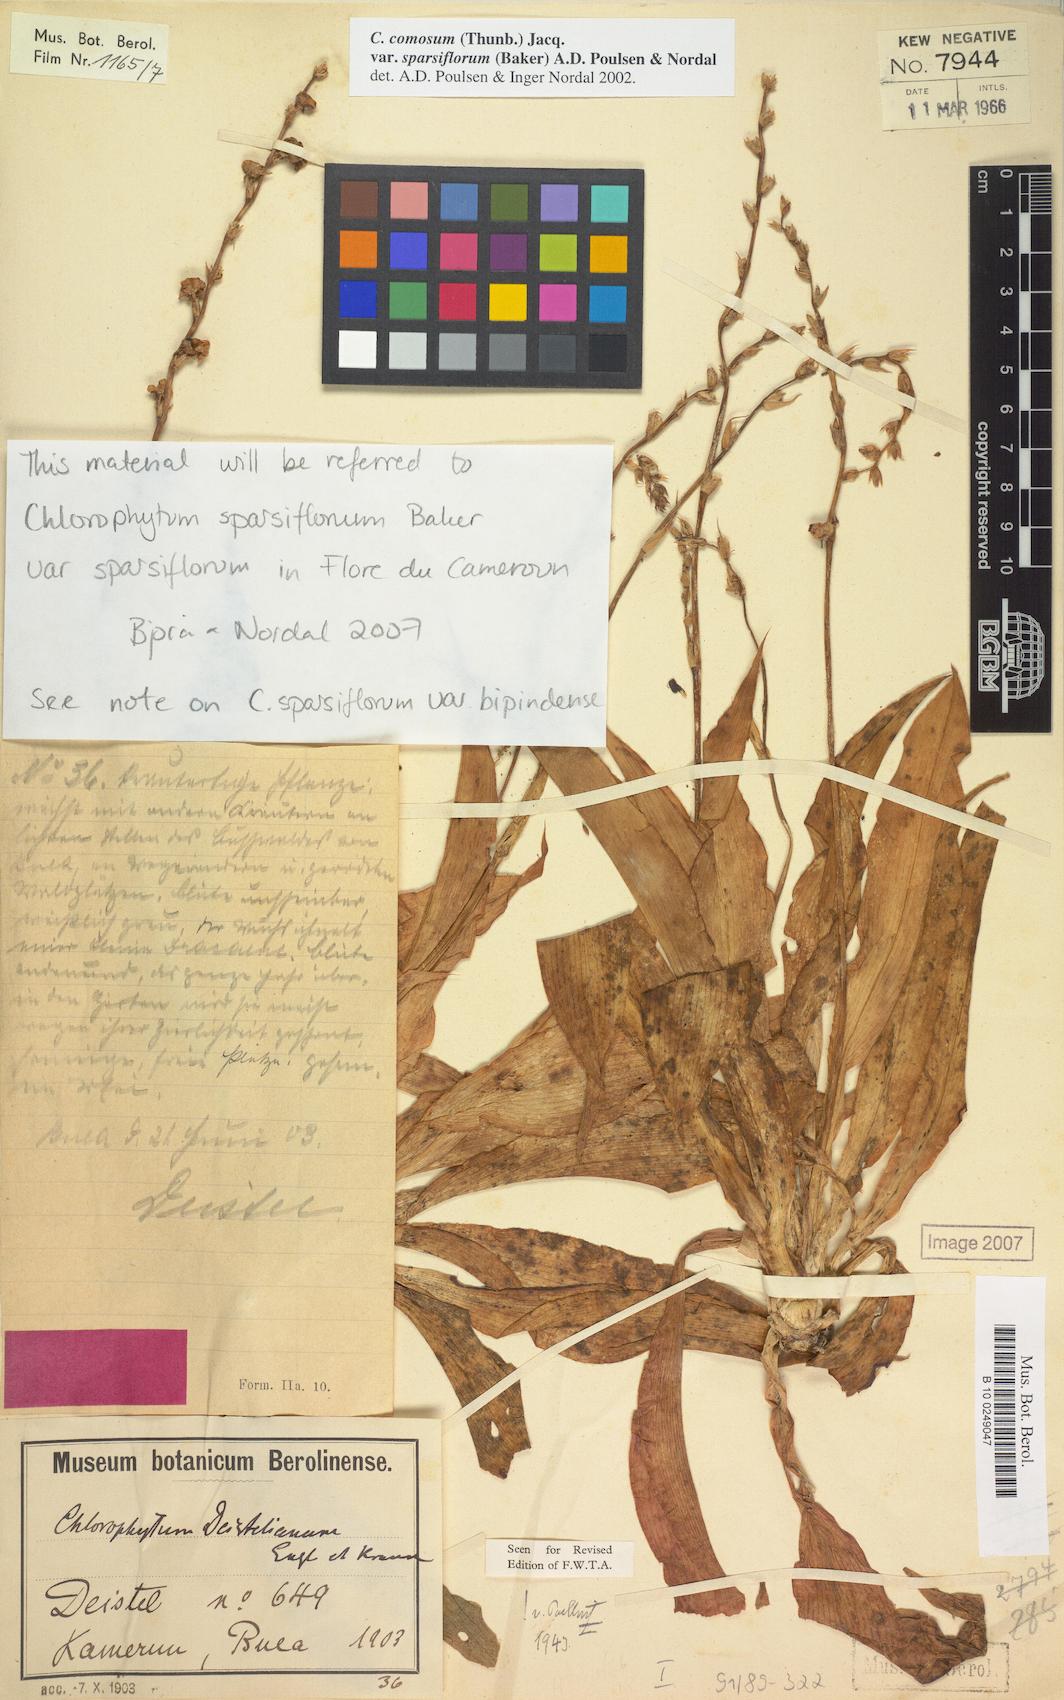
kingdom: Plantae
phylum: Tracheophyta
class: Liliopsida
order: Asparagales
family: Asparagaceae
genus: Chlorophytum
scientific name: Chlorophytum sparsiflorum
